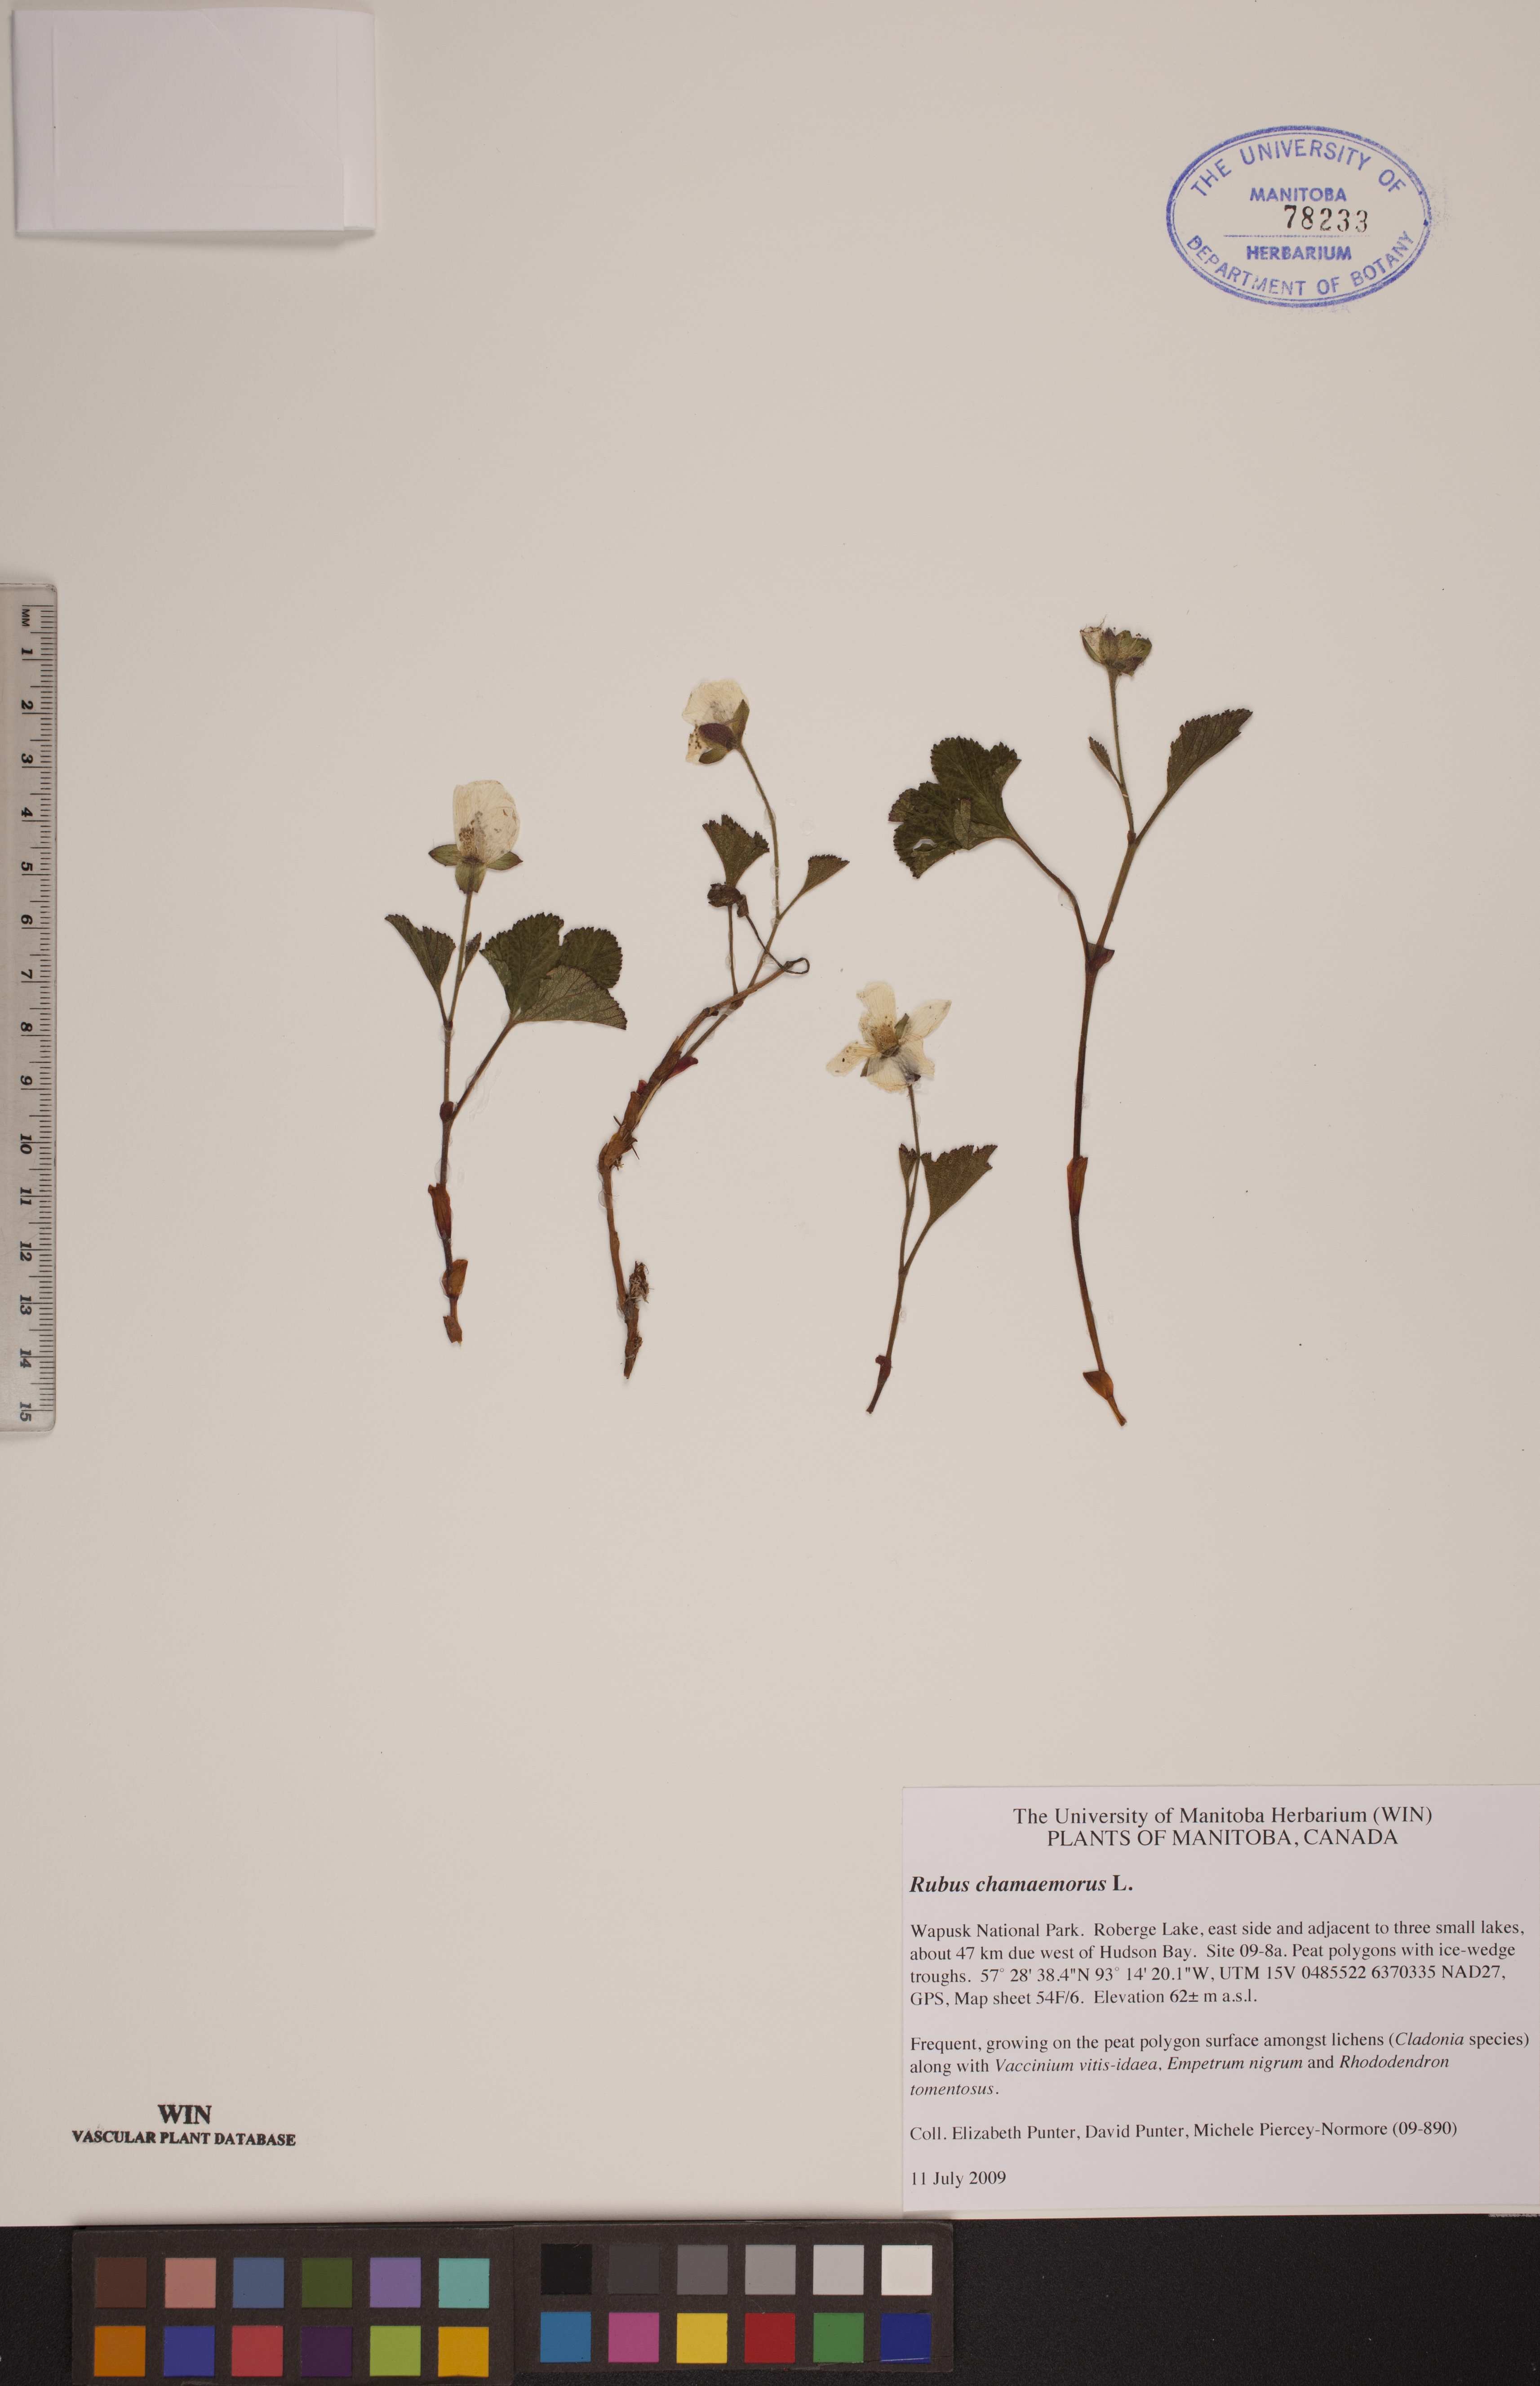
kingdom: Plantae
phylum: Tracheophyta
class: Magnoliopsida
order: Rosales
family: Rosaceae
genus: Rubus
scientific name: Rubus chamaemorus
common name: Cloudberry
